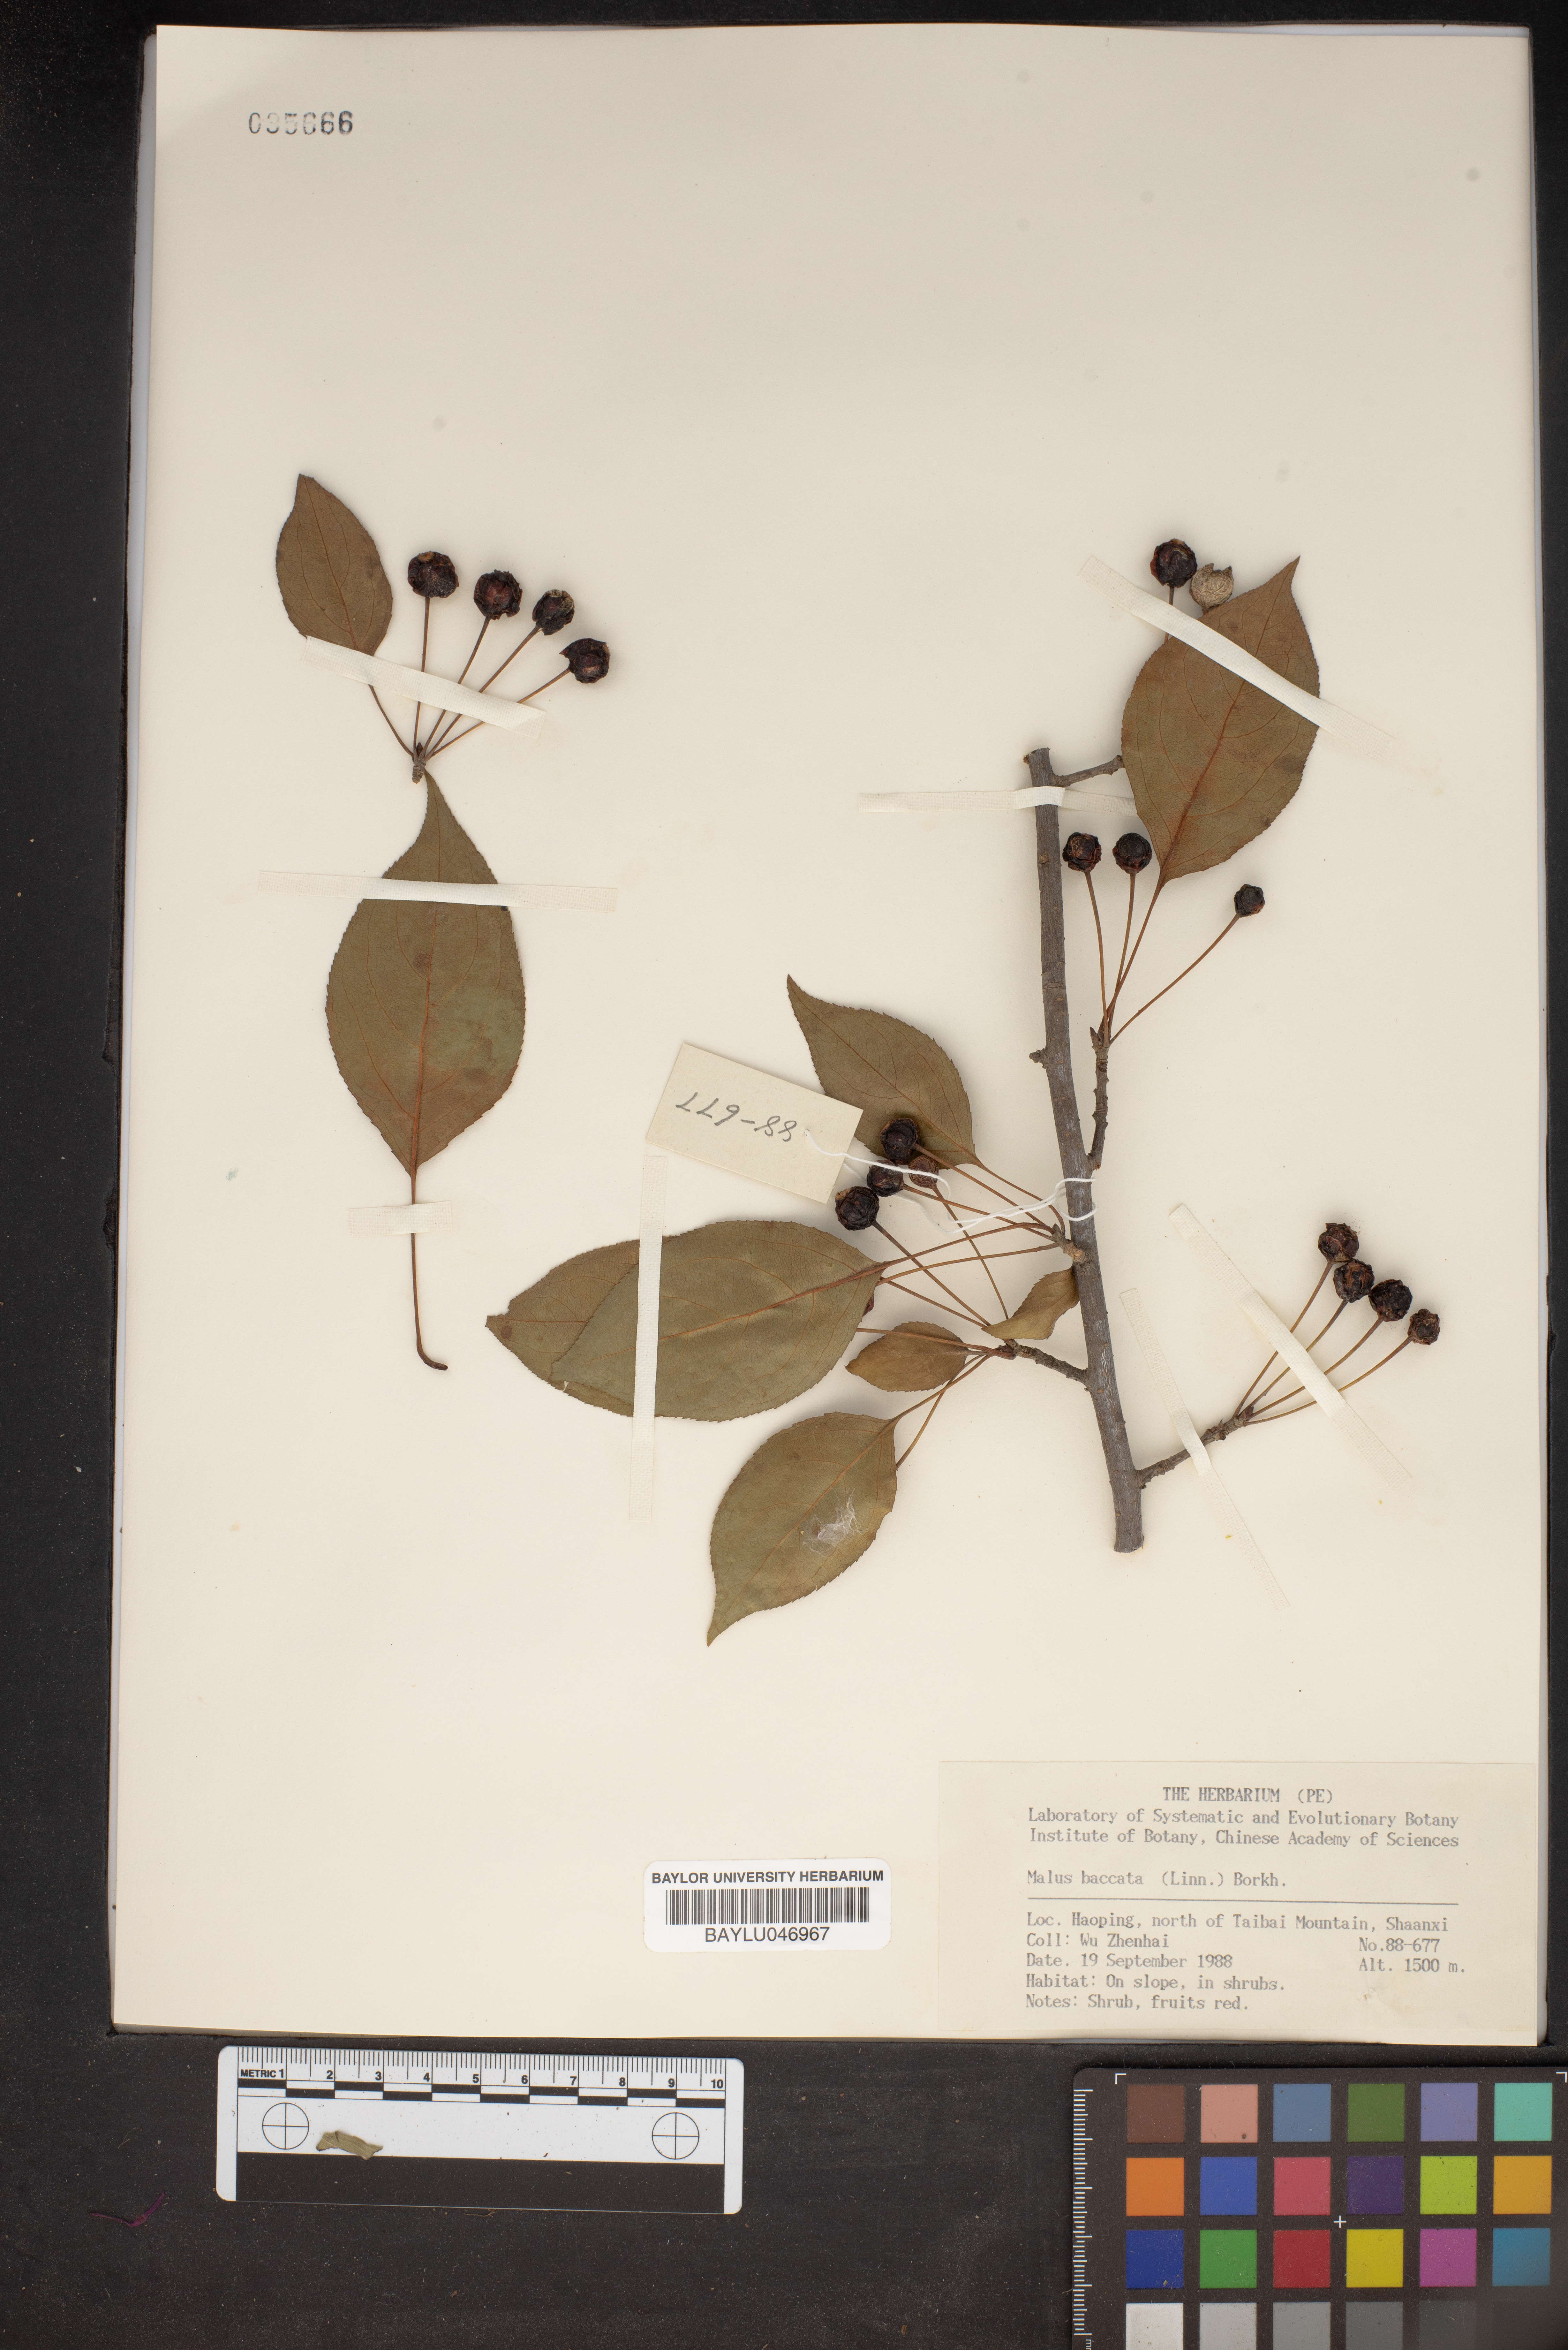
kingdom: Plantae
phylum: Tracheophyta
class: Magnoliopsida
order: Rosales
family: Rosaceae
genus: Malus
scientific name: Malus baccata
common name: Siberian crab
